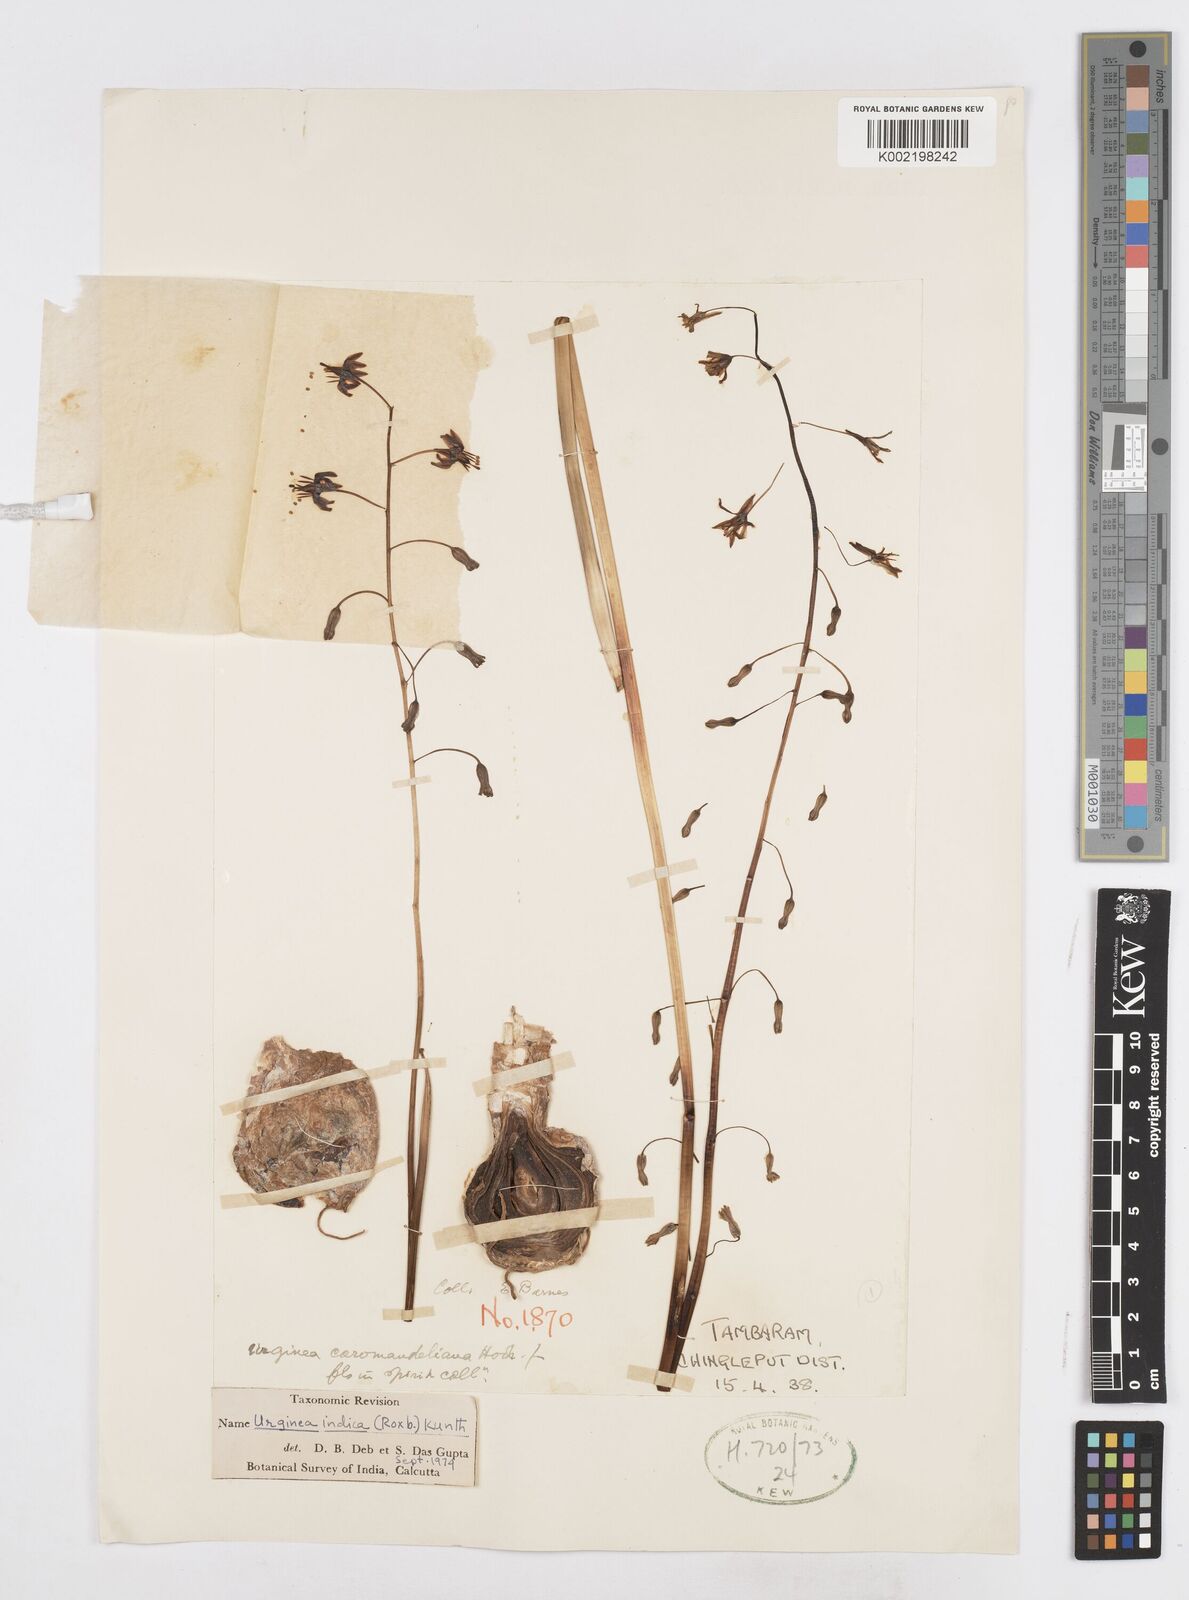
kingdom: Plantae
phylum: Tracheophyta
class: Liliopsida
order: Asparagales
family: Asparagaceae
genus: Drimia
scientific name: Drimia indica
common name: Indian-squill
